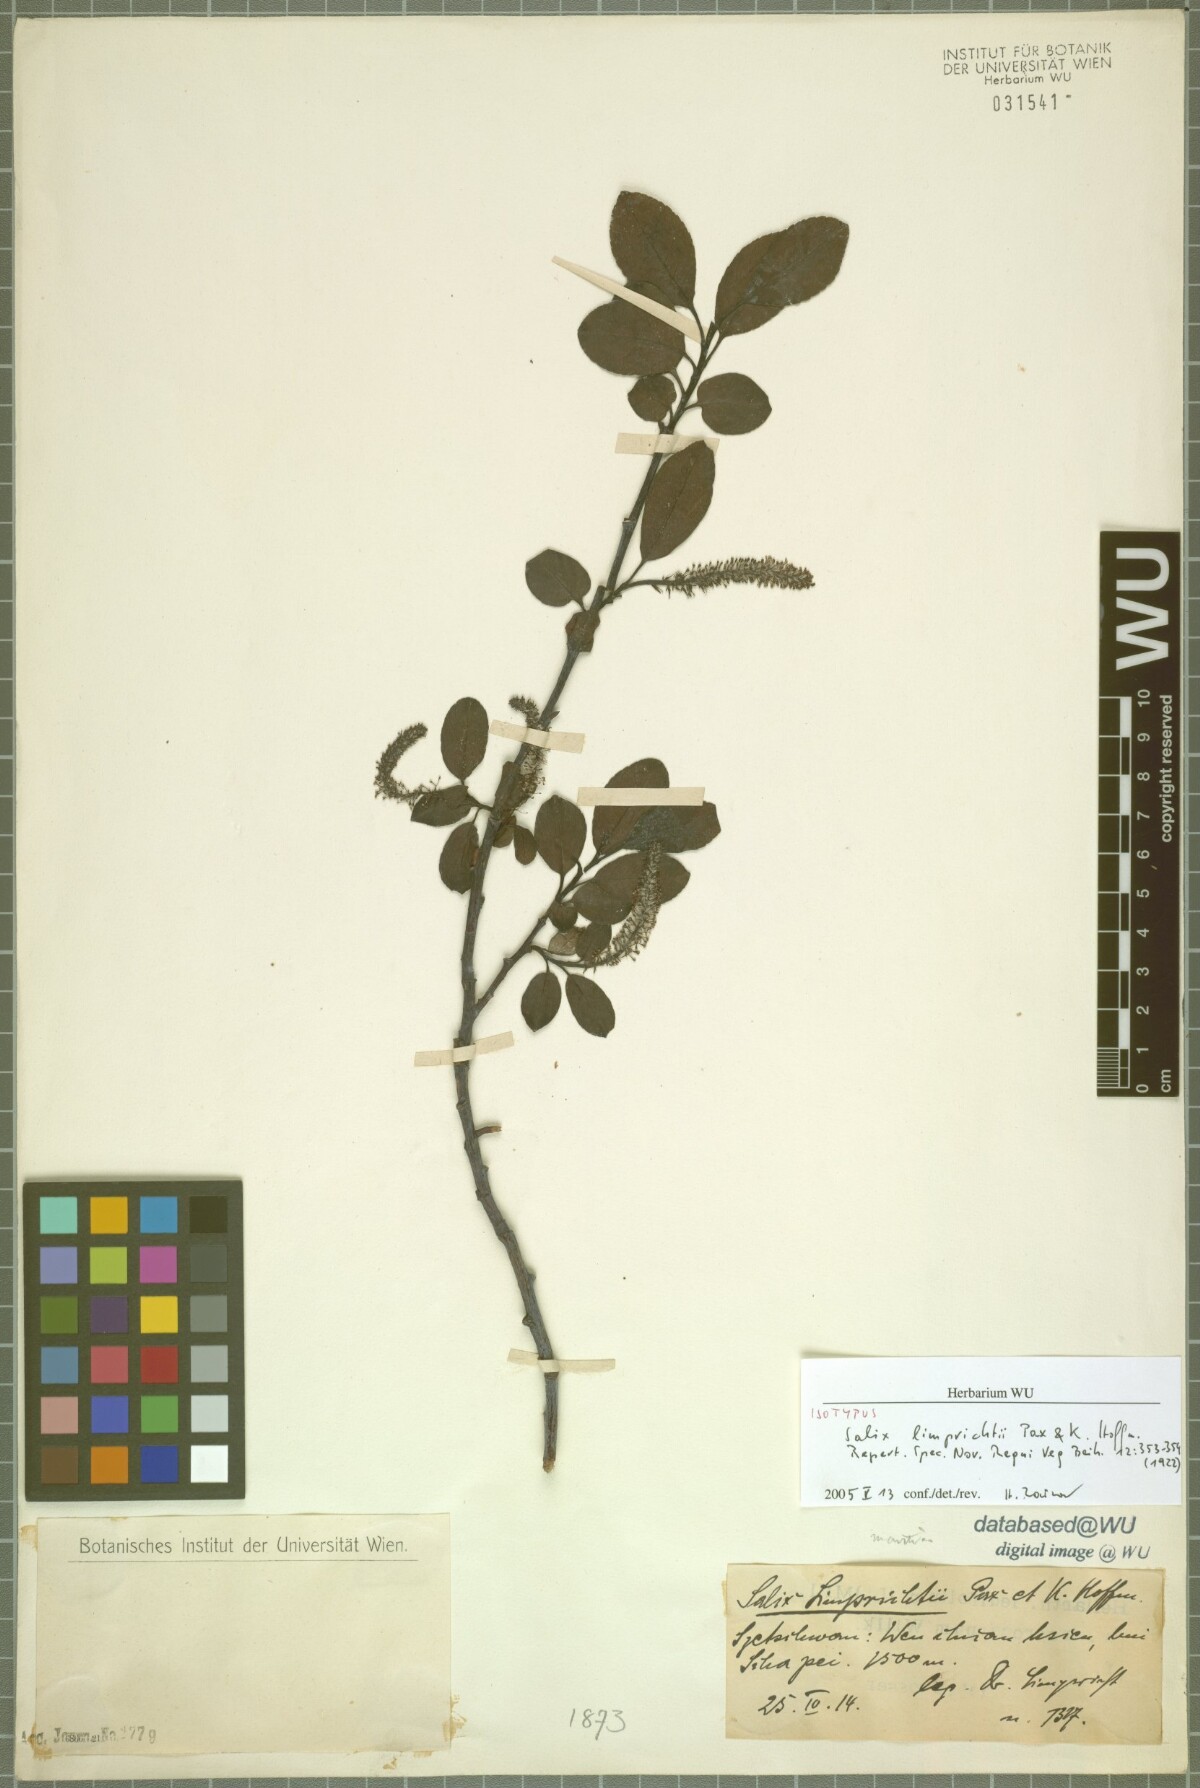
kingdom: Plantae
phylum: Tracheophyta
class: Magnoliopsida
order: Malpighiales
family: Salicaceae
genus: Salix
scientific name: Salix limprichtii
